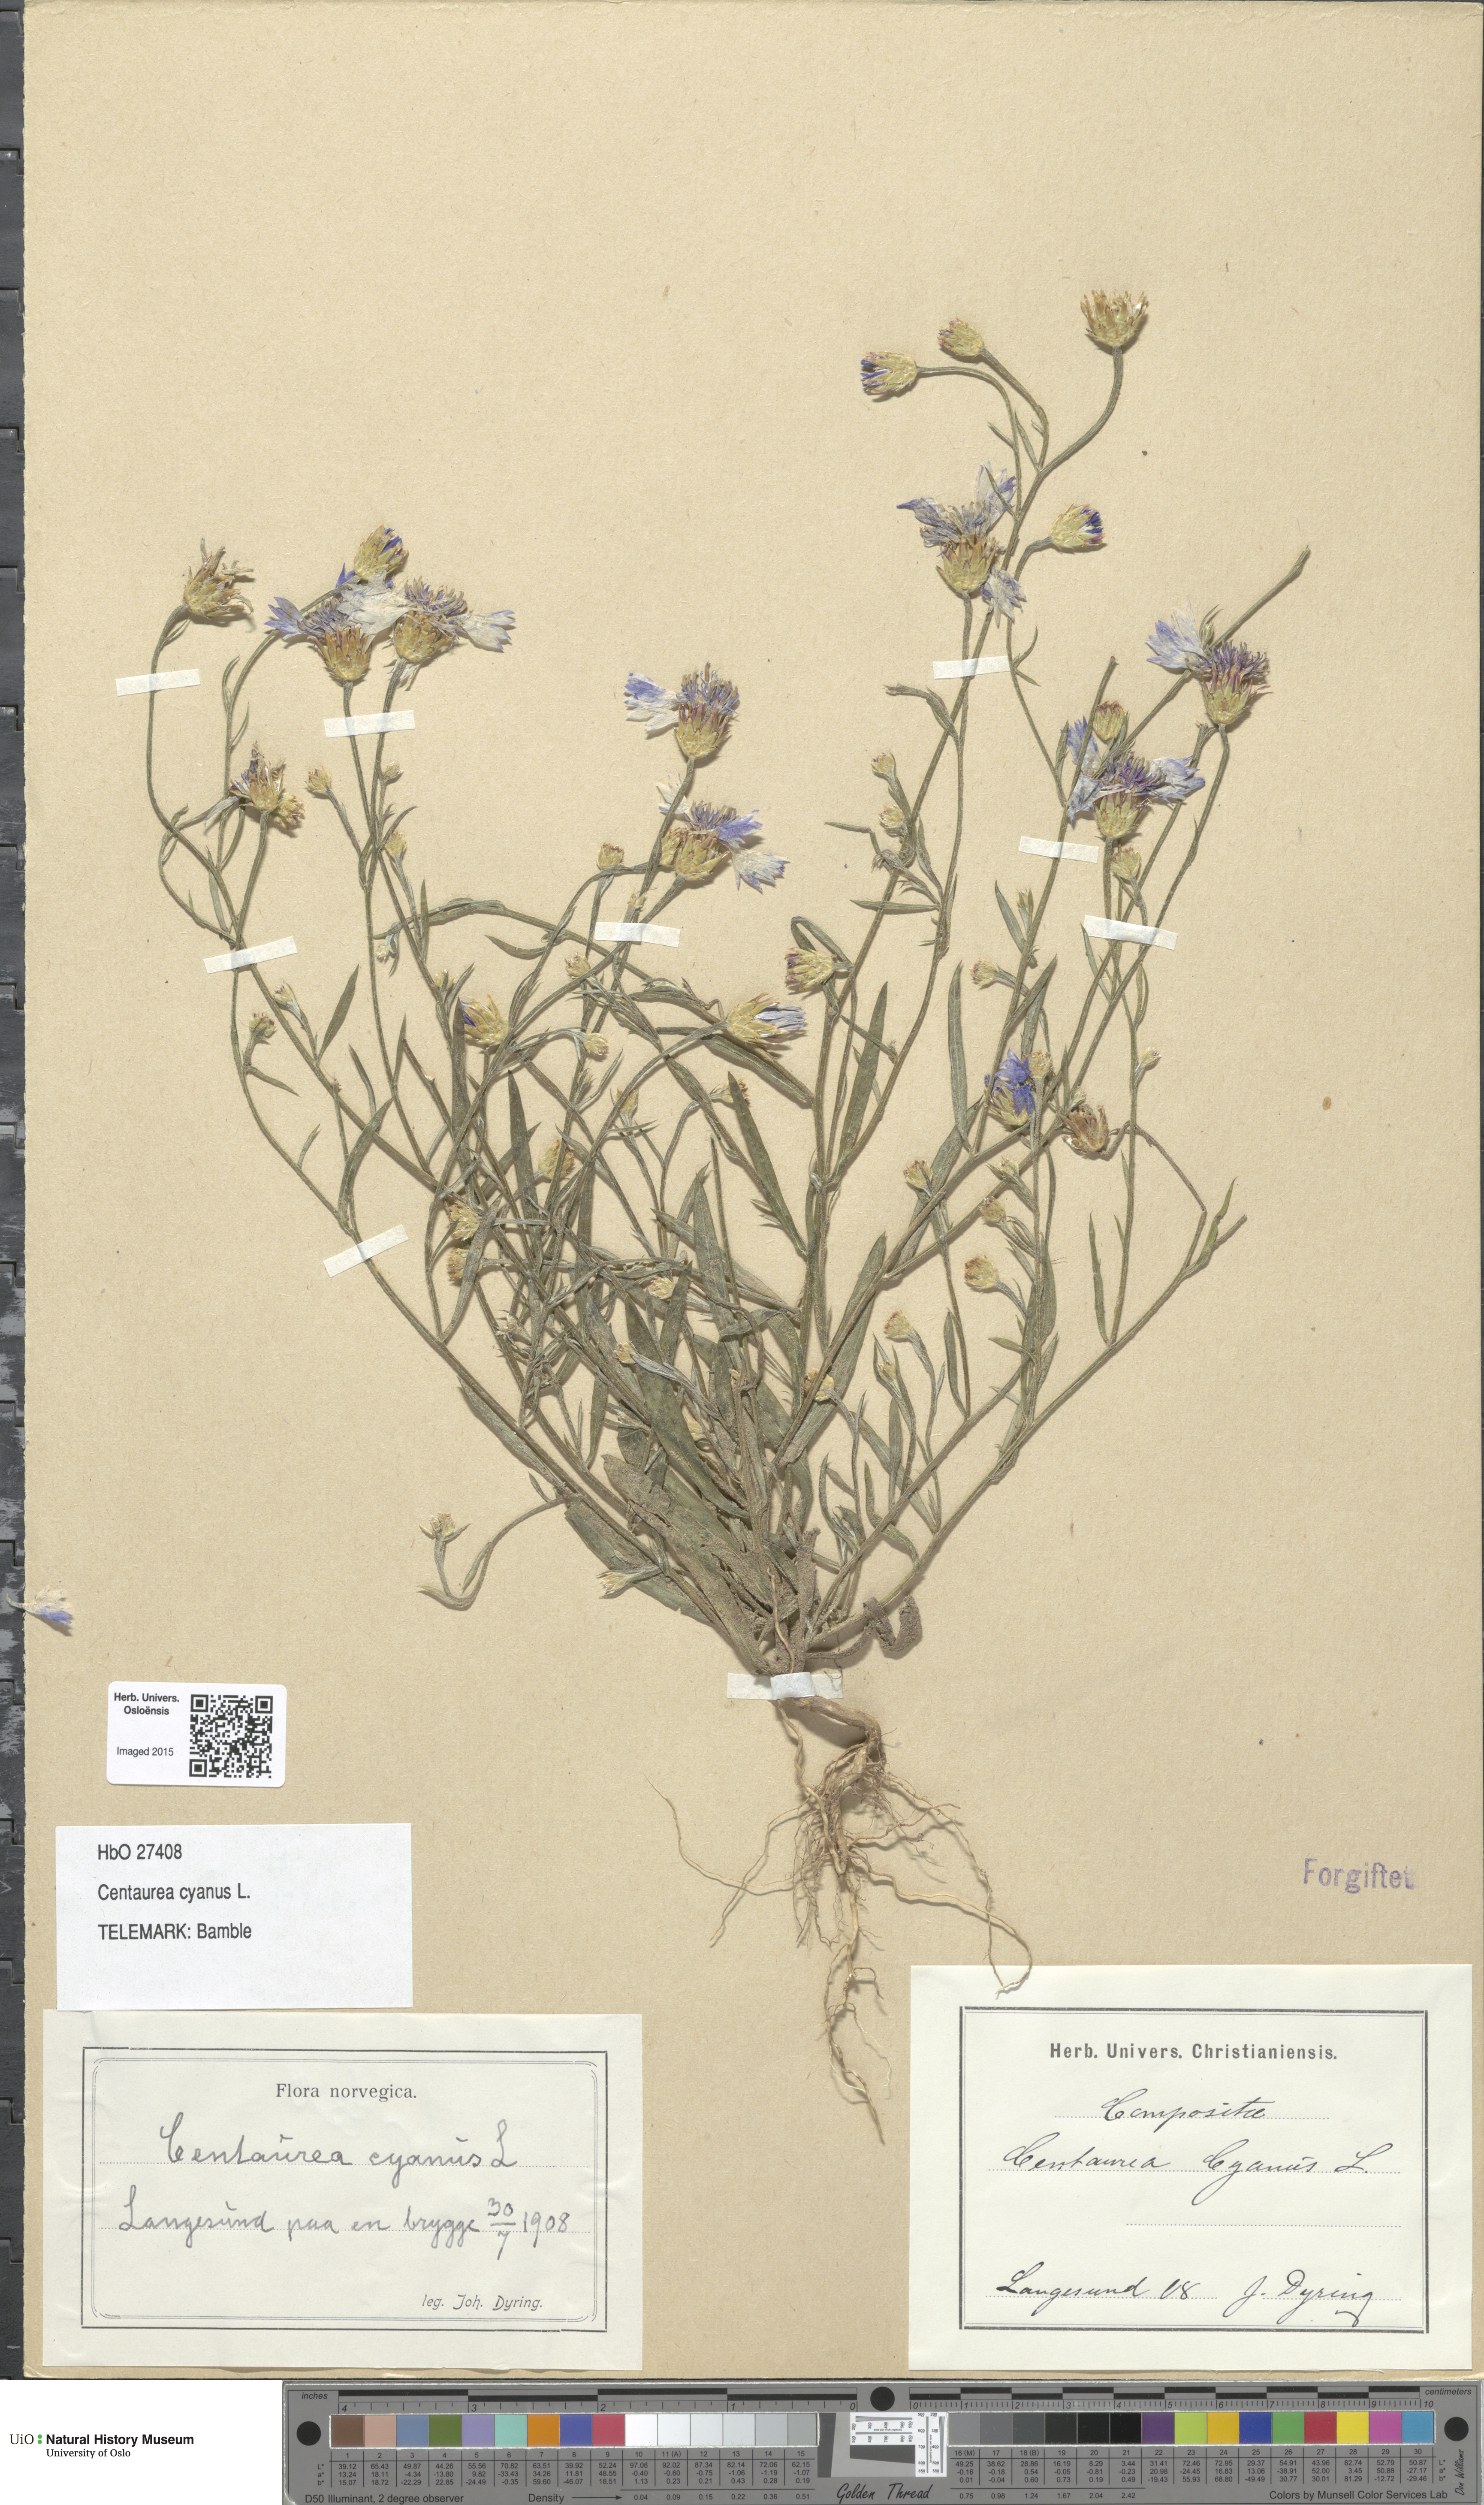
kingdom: Plantae
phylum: Tracheophyta
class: Magnoliopsida
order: Asterales
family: Asteraceae
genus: Centaurea
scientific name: Centaurea cyanus
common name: Cornflower
